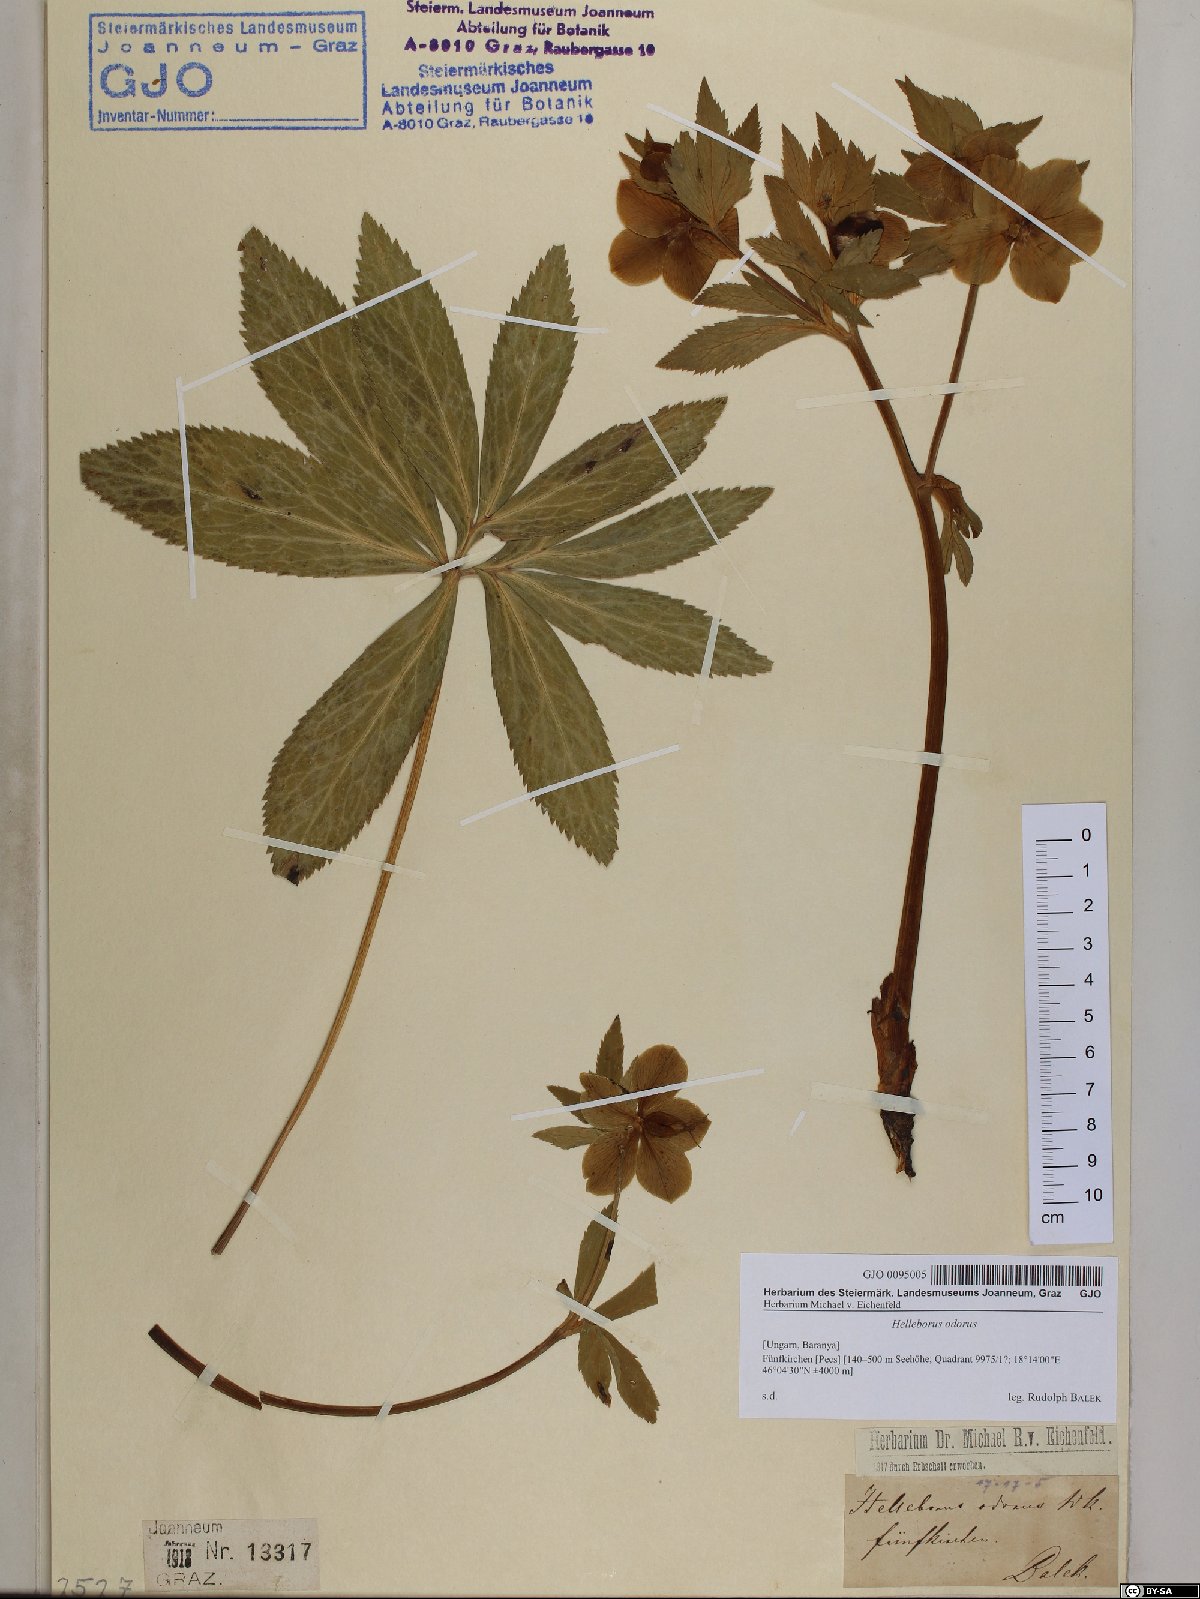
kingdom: Plantae
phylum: Tracheophyta
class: Magnoliopsida
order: Ranunculales
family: Ranunculaceae
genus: Helleborus
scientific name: Helleborus odorus
